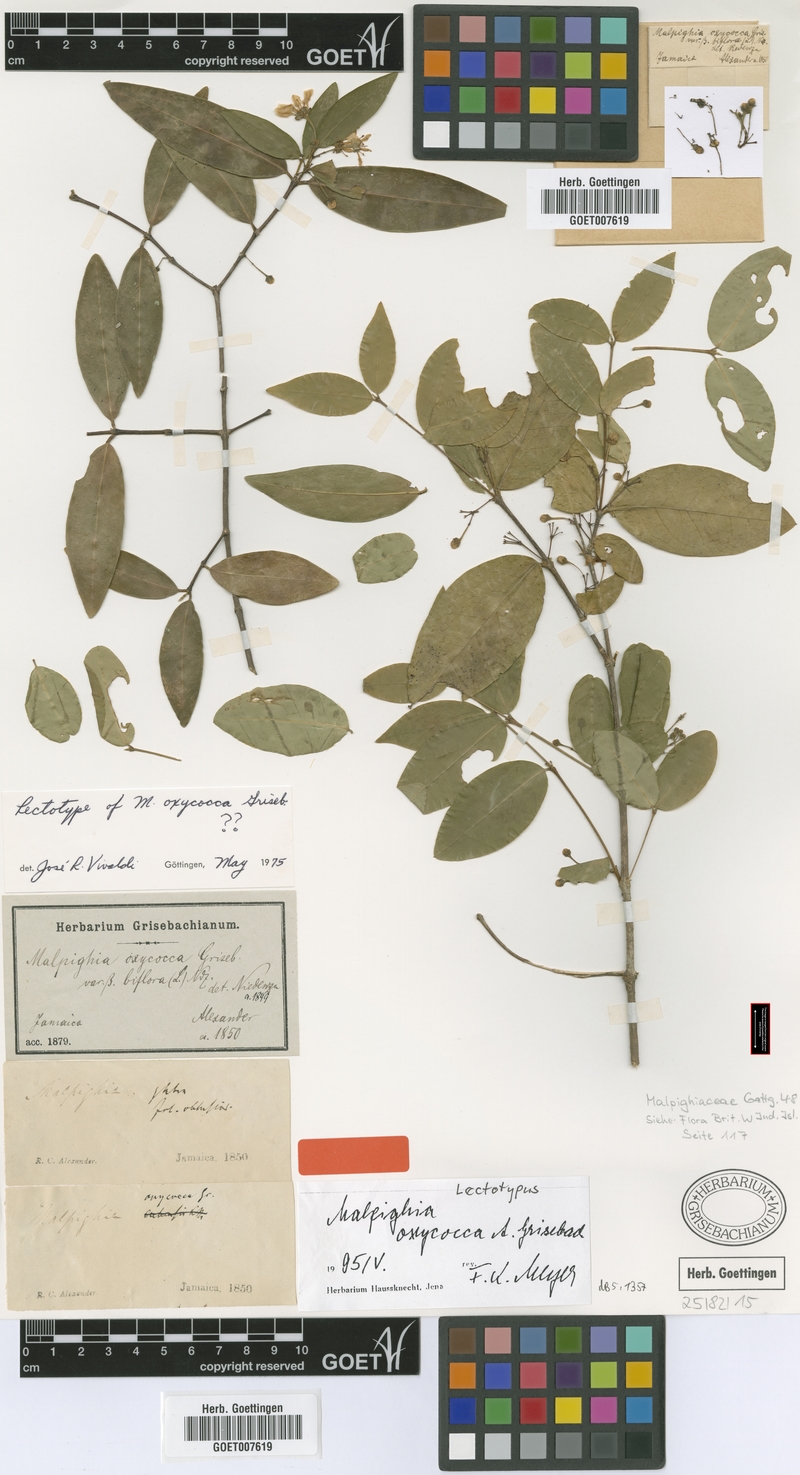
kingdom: Plantae
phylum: Tracheophyta
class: Magnoliopsida
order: Malpighiales
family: Malpighiaceae
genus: Malpighia
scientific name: Malpighia oxycocca
